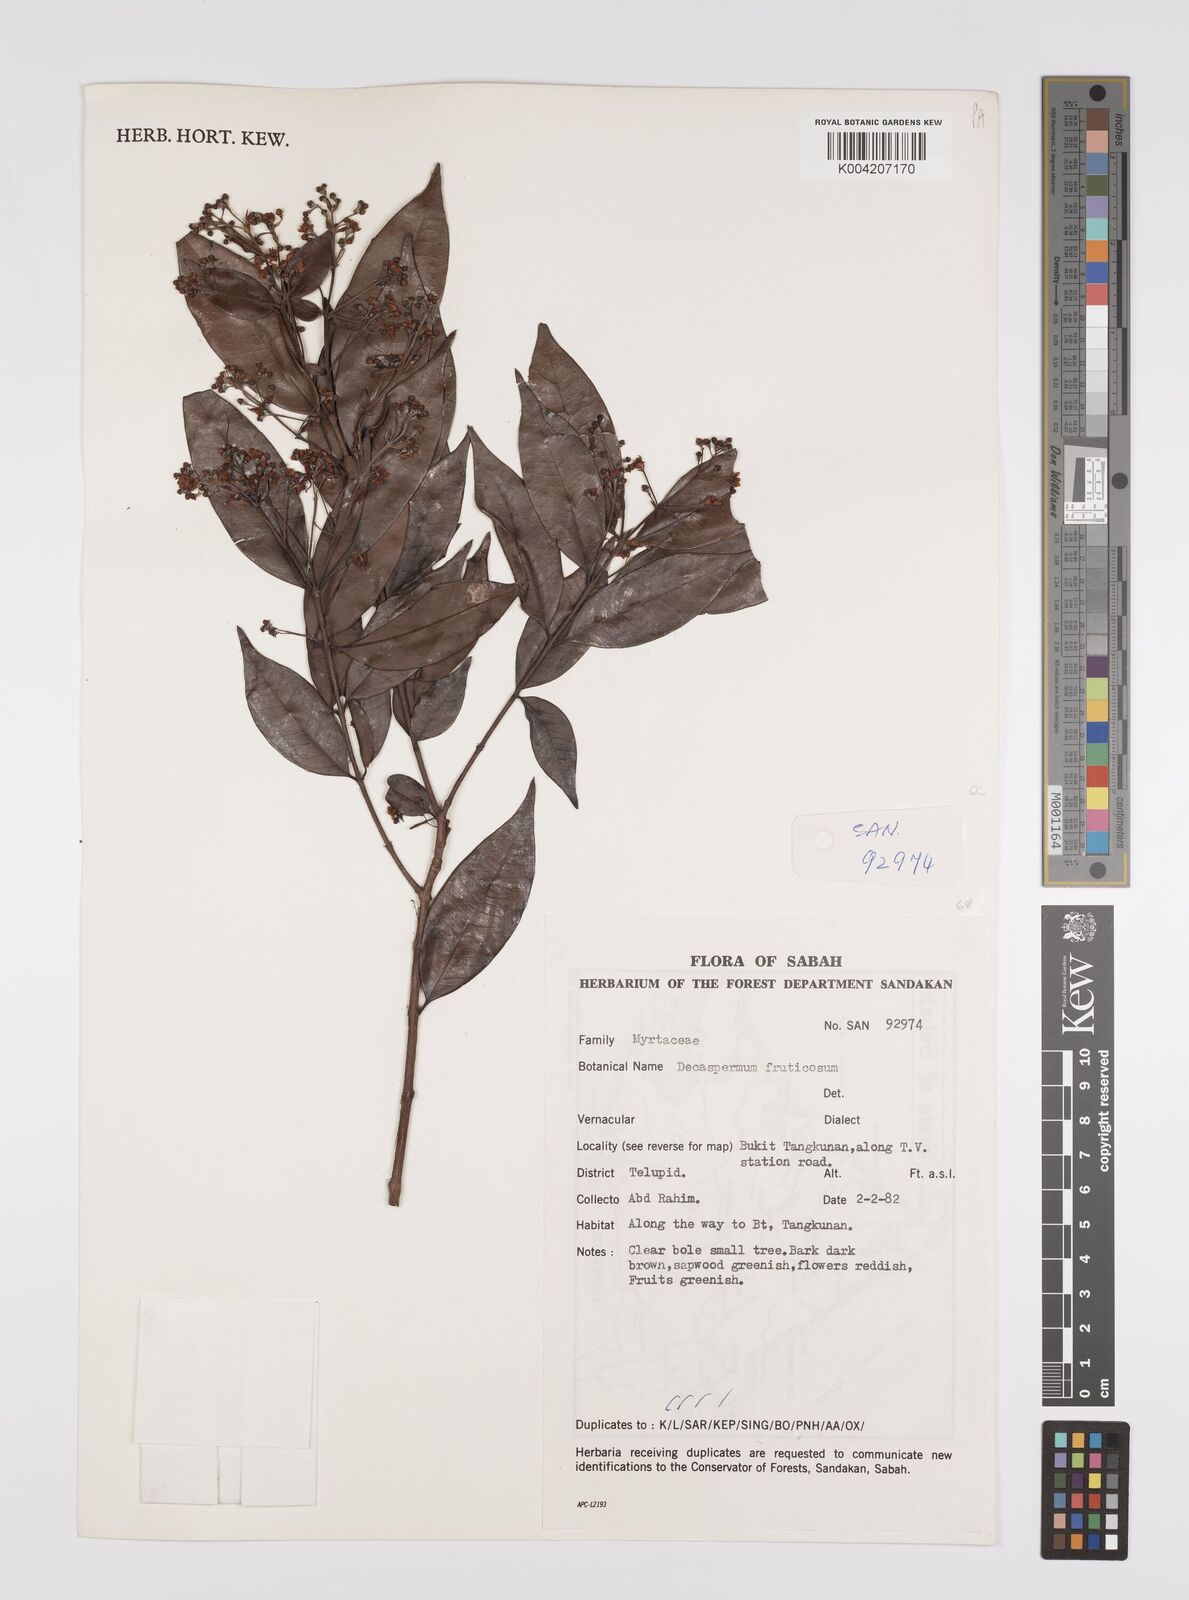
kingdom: Plantae
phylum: Tracheophyta
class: Magnoliopsida
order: Myrtales
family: Myrtaceae
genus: Decaspermum
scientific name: Decaspermum fruticosum
